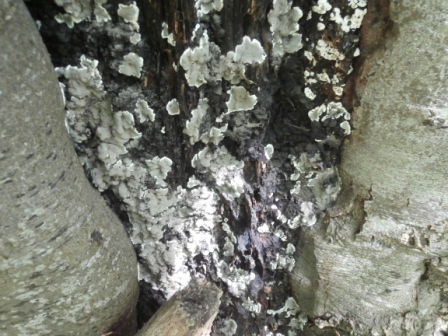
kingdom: Fungi
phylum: Ascomycota
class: Sordariomycetes
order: Xylariales
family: Xylariaceae
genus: Kretzschmaria
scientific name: Kretzschmaria deusta
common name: stor kulsvamp
